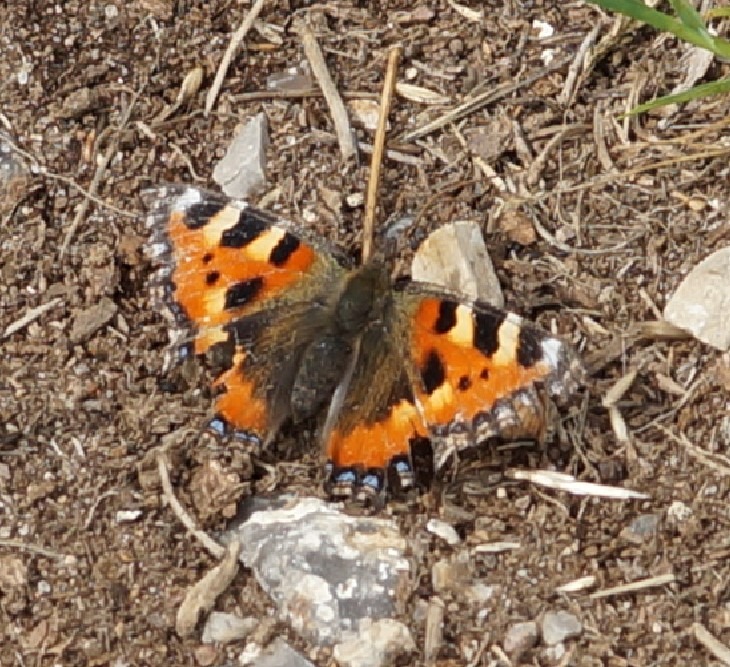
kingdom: Animalia
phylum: Arthropoda
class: Insecta
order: Lepidoptera
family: Nymphalidae
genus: Aglais
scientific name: Aglais urticae
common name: Nældens takvinge
